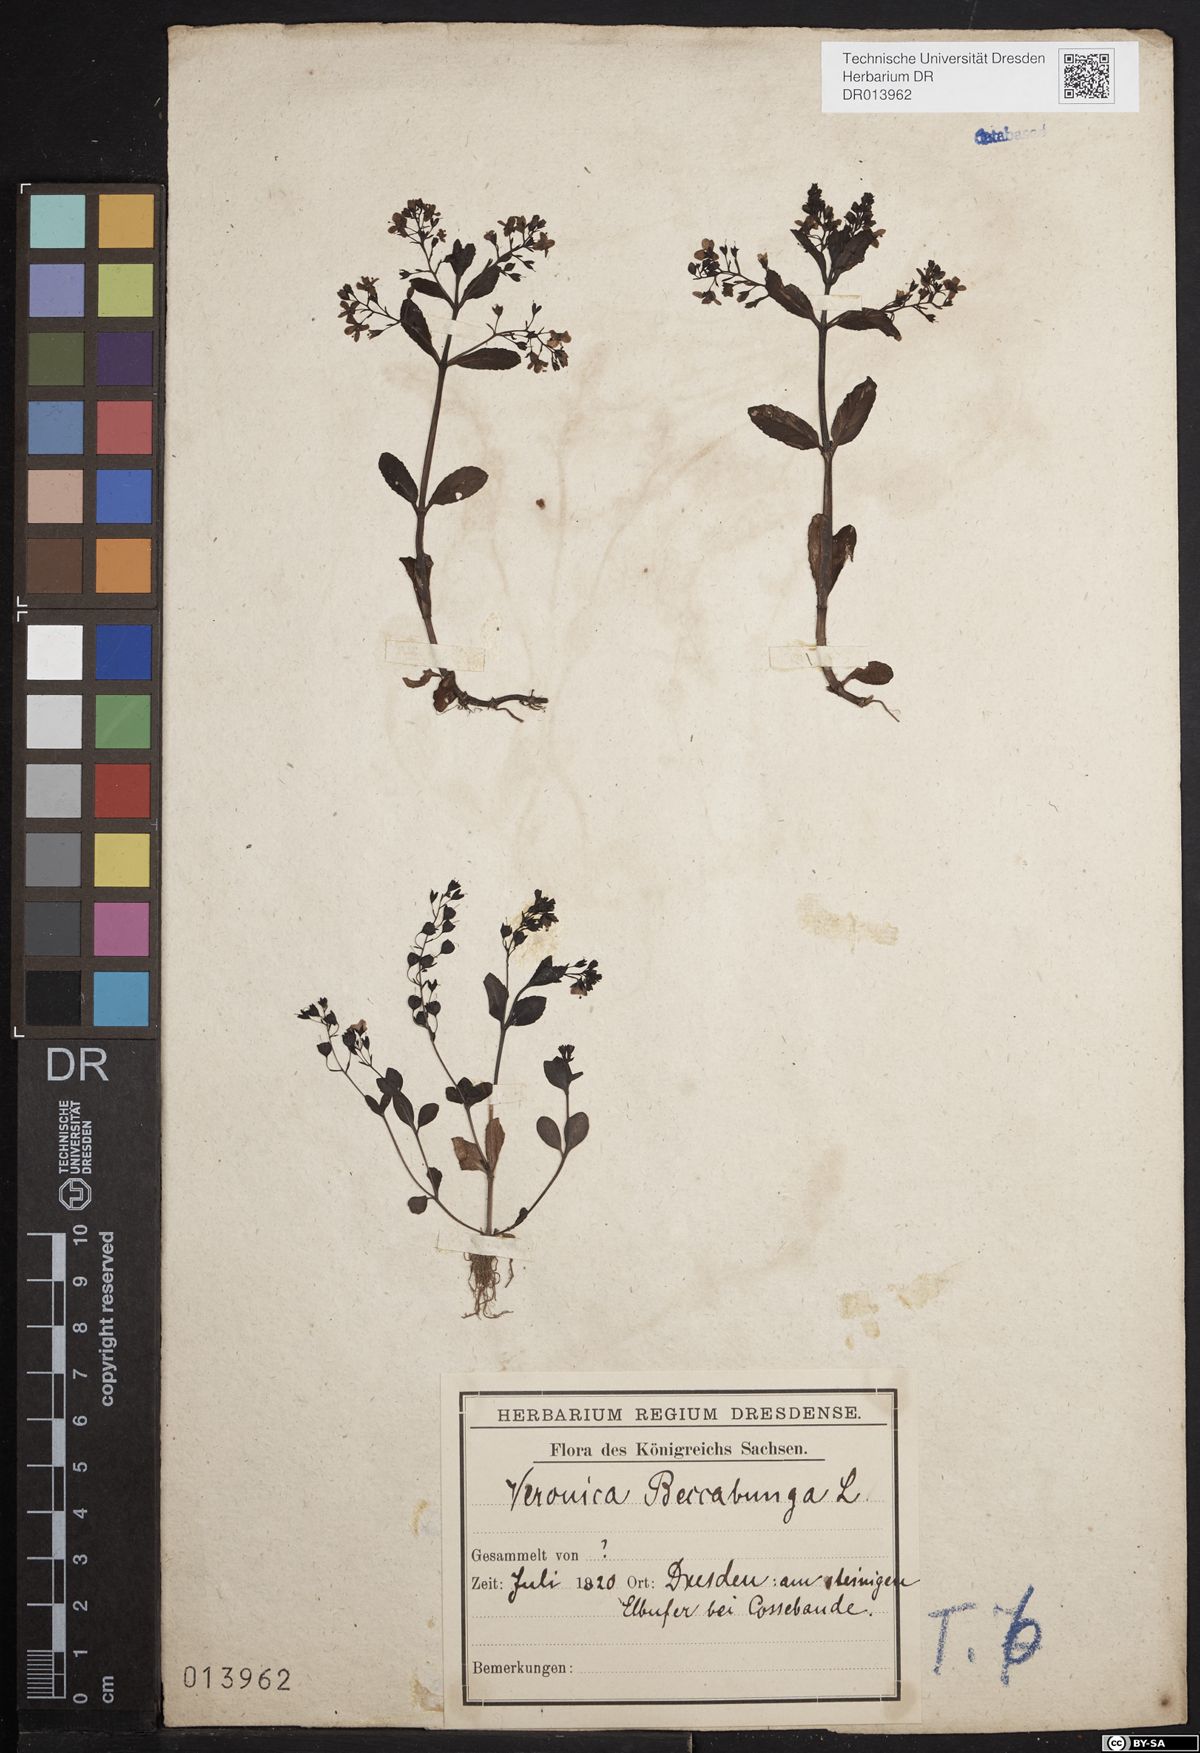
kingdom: Plantae
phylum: Tracheophyta
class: Magnoliopsida
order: Lamiales
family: Plantaginaceae
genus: Veronica
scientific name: Veronica beccabunga
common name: Brooklime
